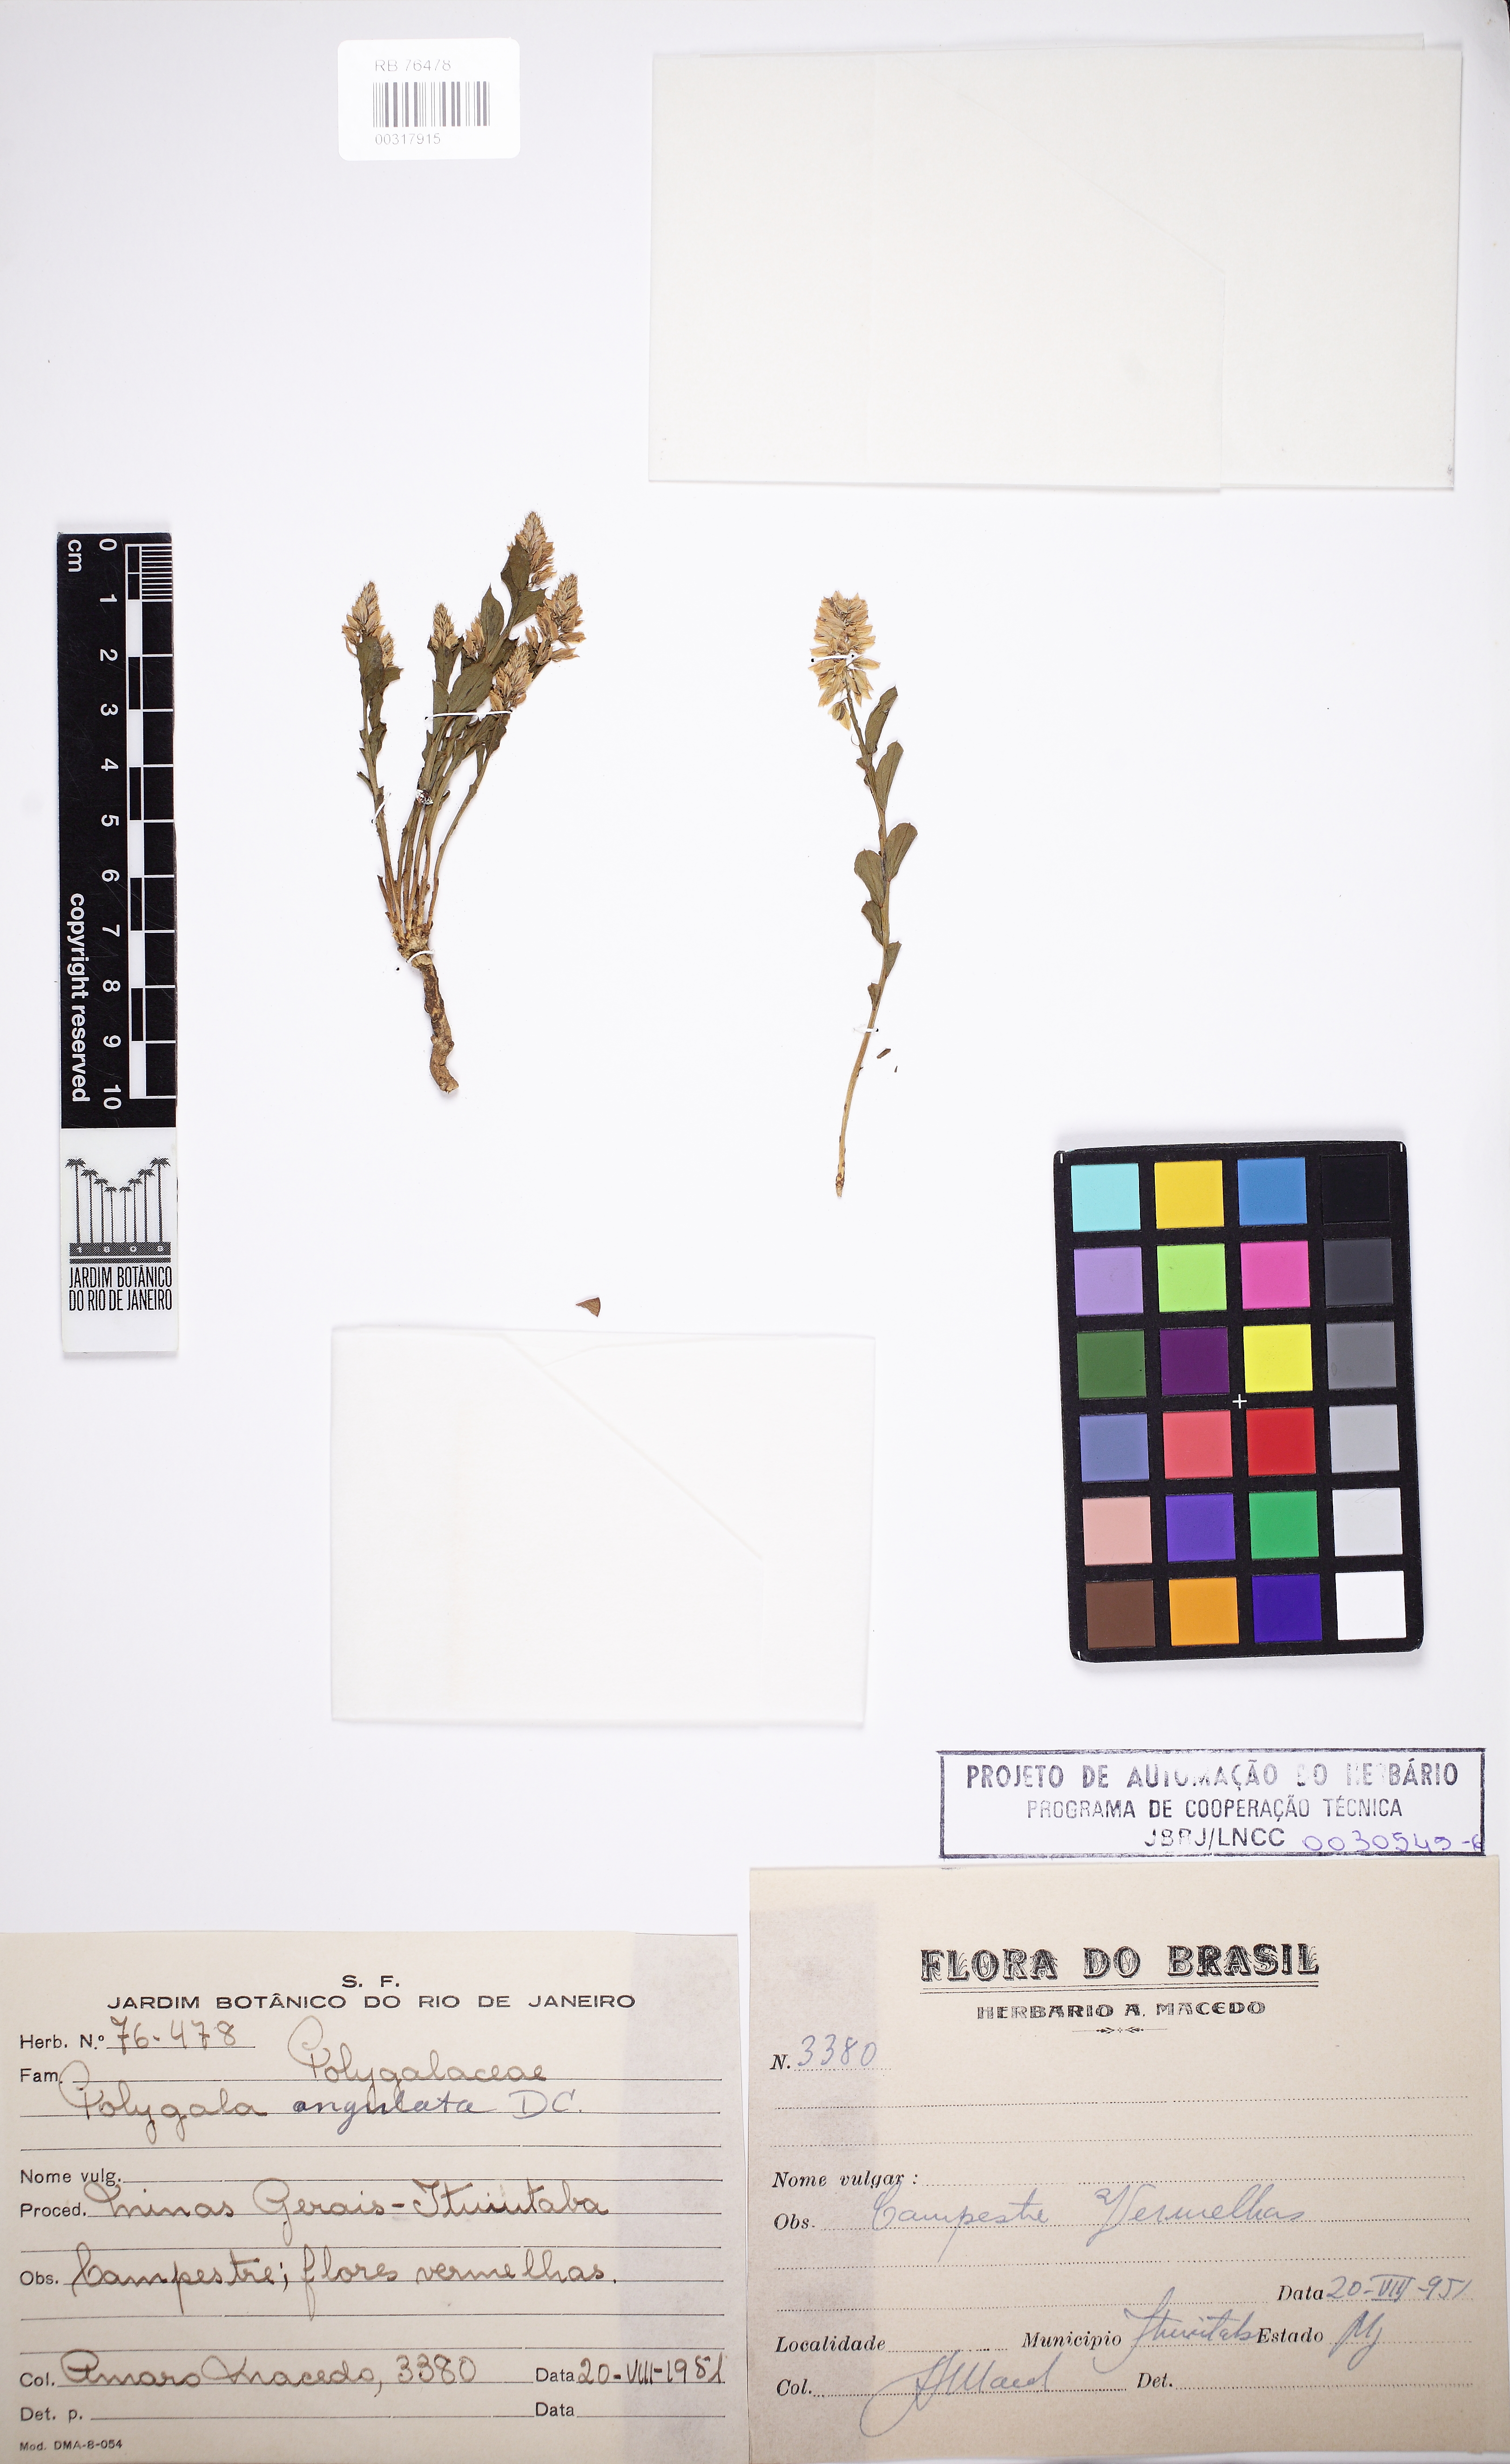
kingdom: Plantae
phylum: Tracheophyta
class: Magnoliopsida
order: Fabales
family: Polygalaceae
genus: Polygala
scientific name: Polygala poaya
